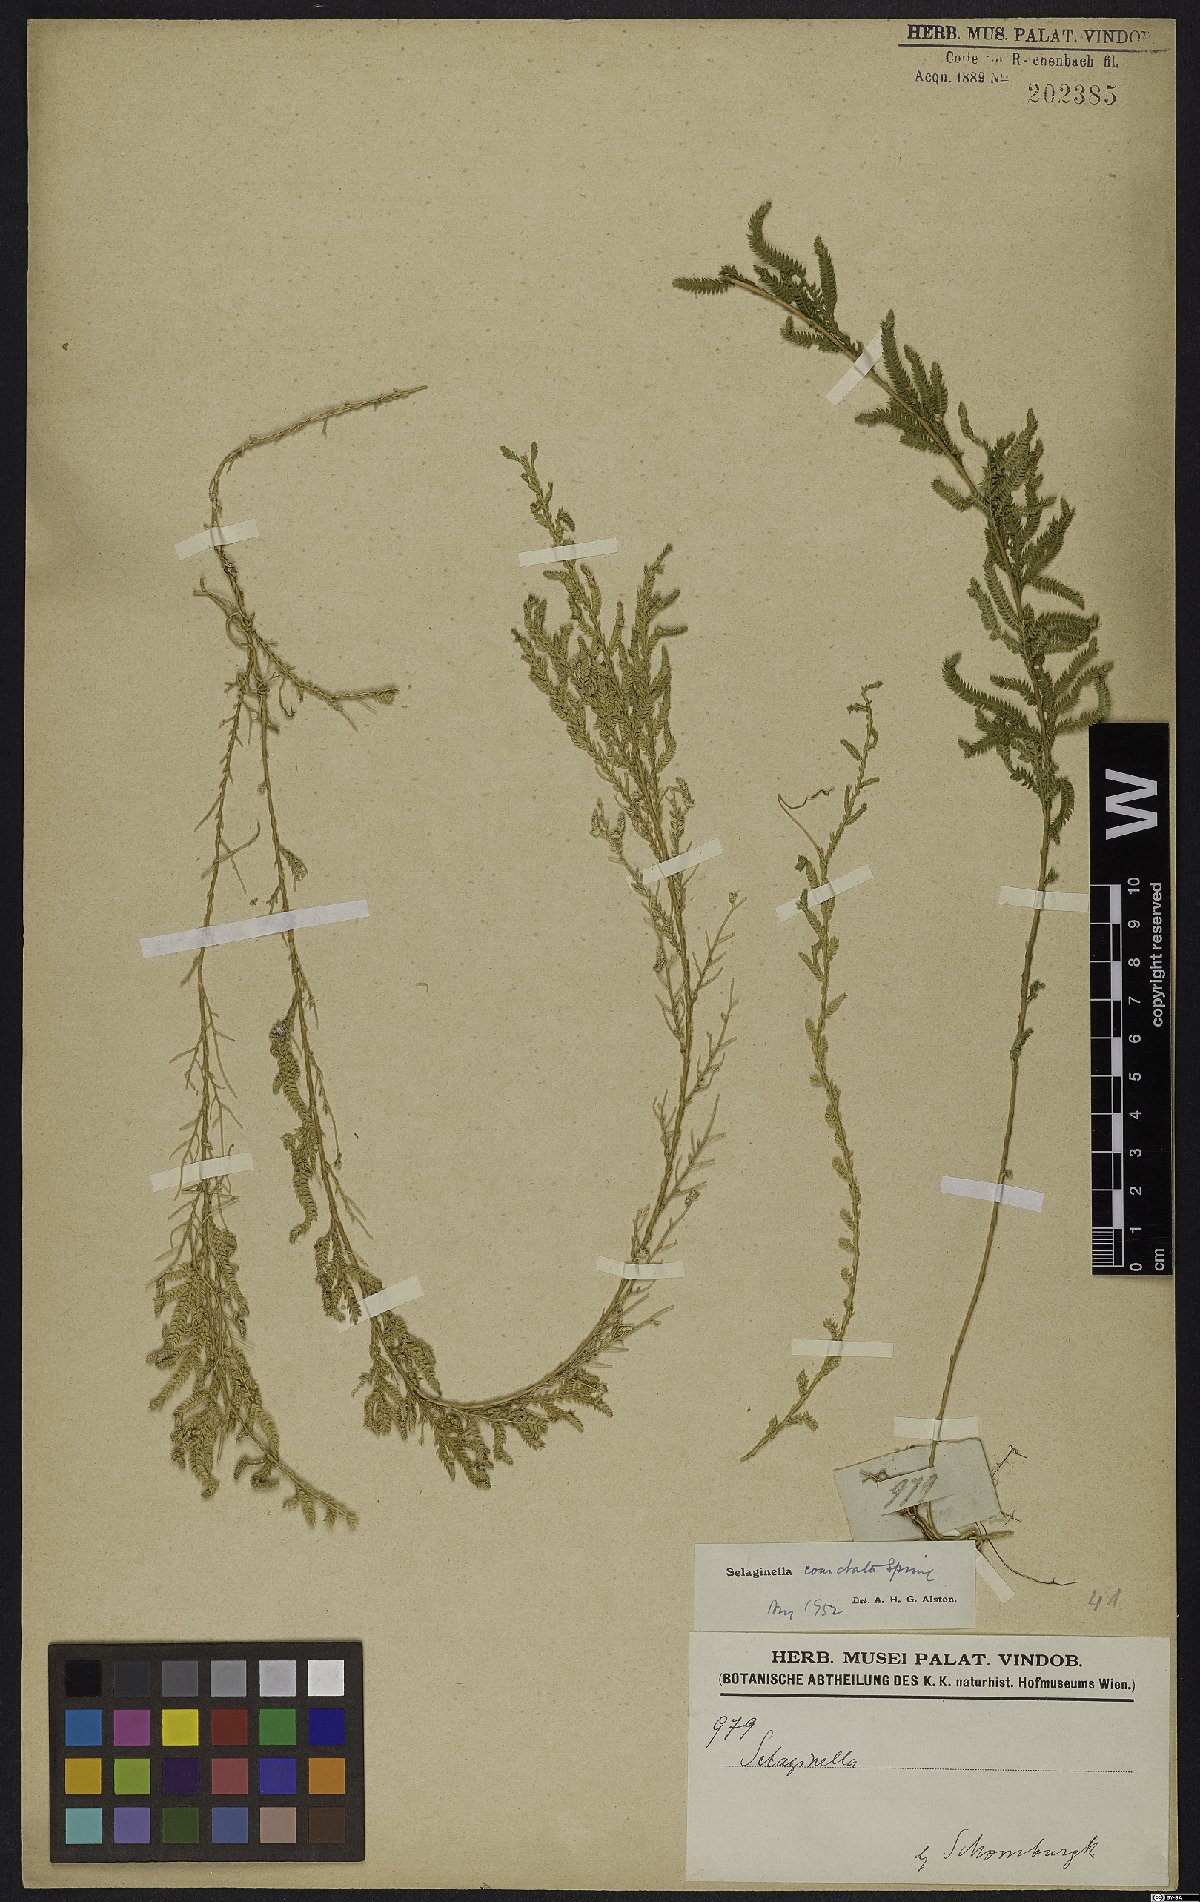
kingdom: Plantae
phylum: Tracheophyta
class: Lycopodiopsida
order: Selaginellales
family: Selaginellaceae
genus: Selaginella
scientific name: Selaginella coarctata
